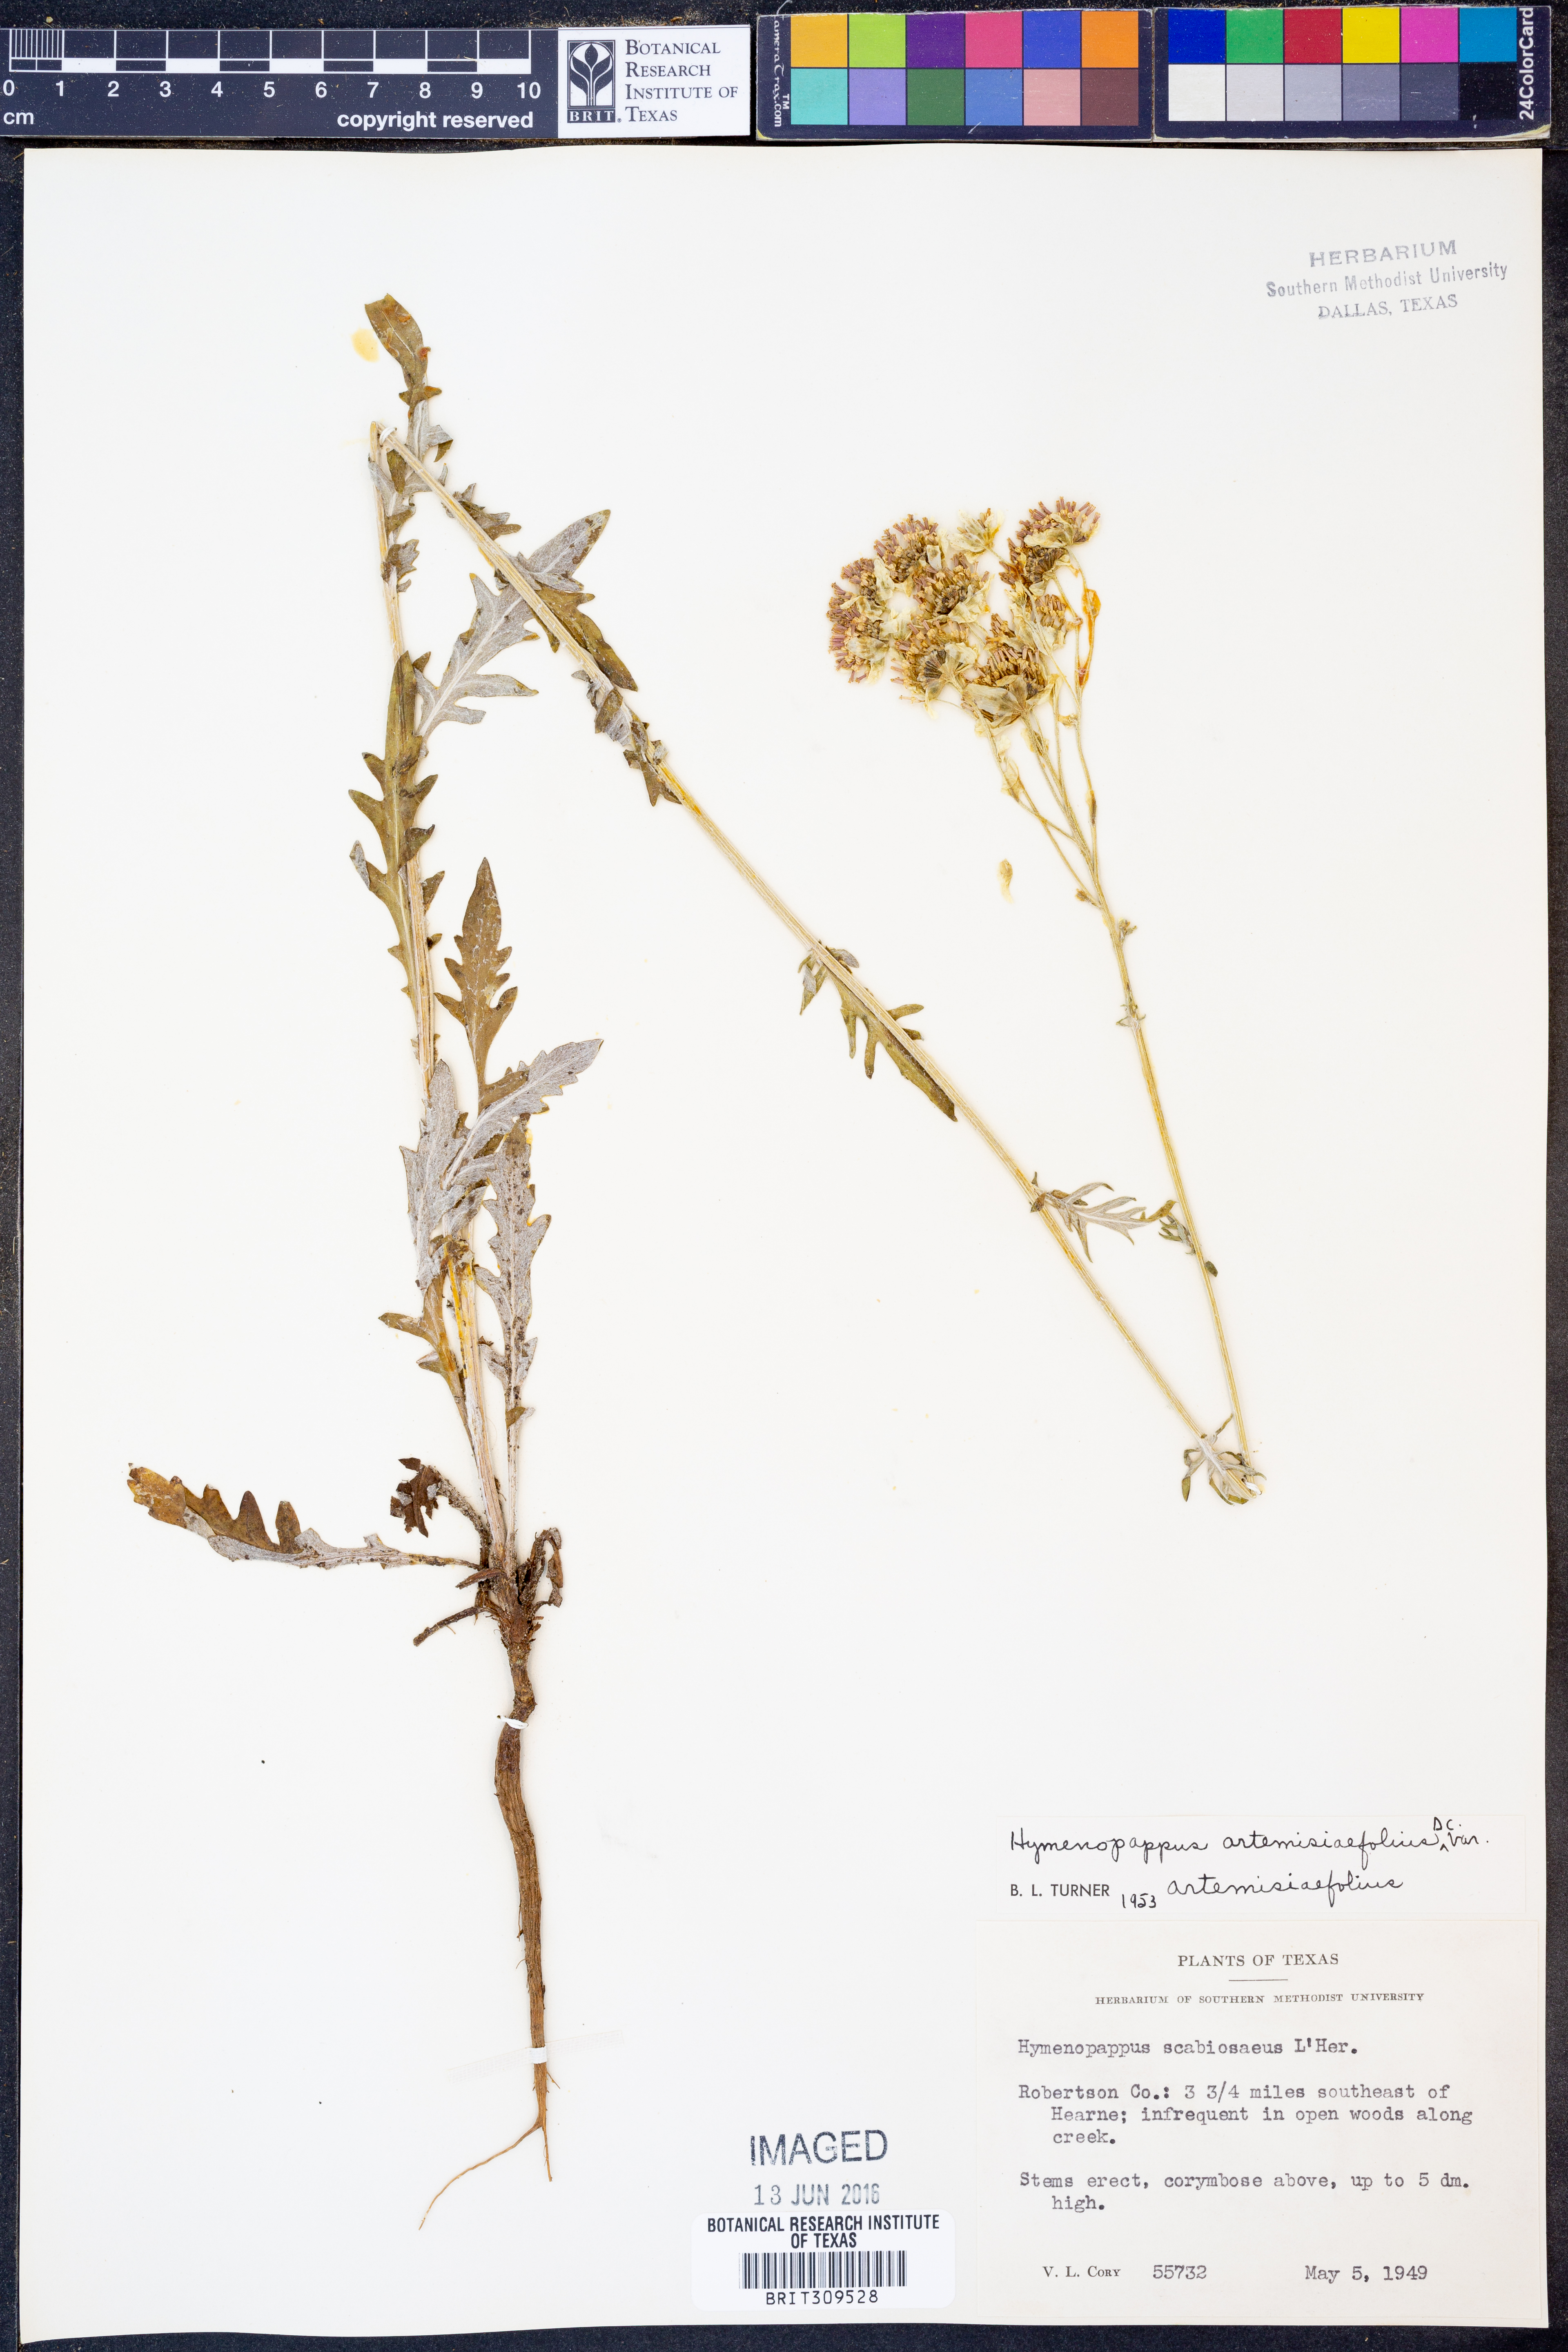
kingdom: Plantae
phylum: Tracheophyta
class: Magnoliopsida
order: Asterales
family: Asteraceae
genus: Hymenopappus
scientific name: Hymenopappus artemisiifolius
